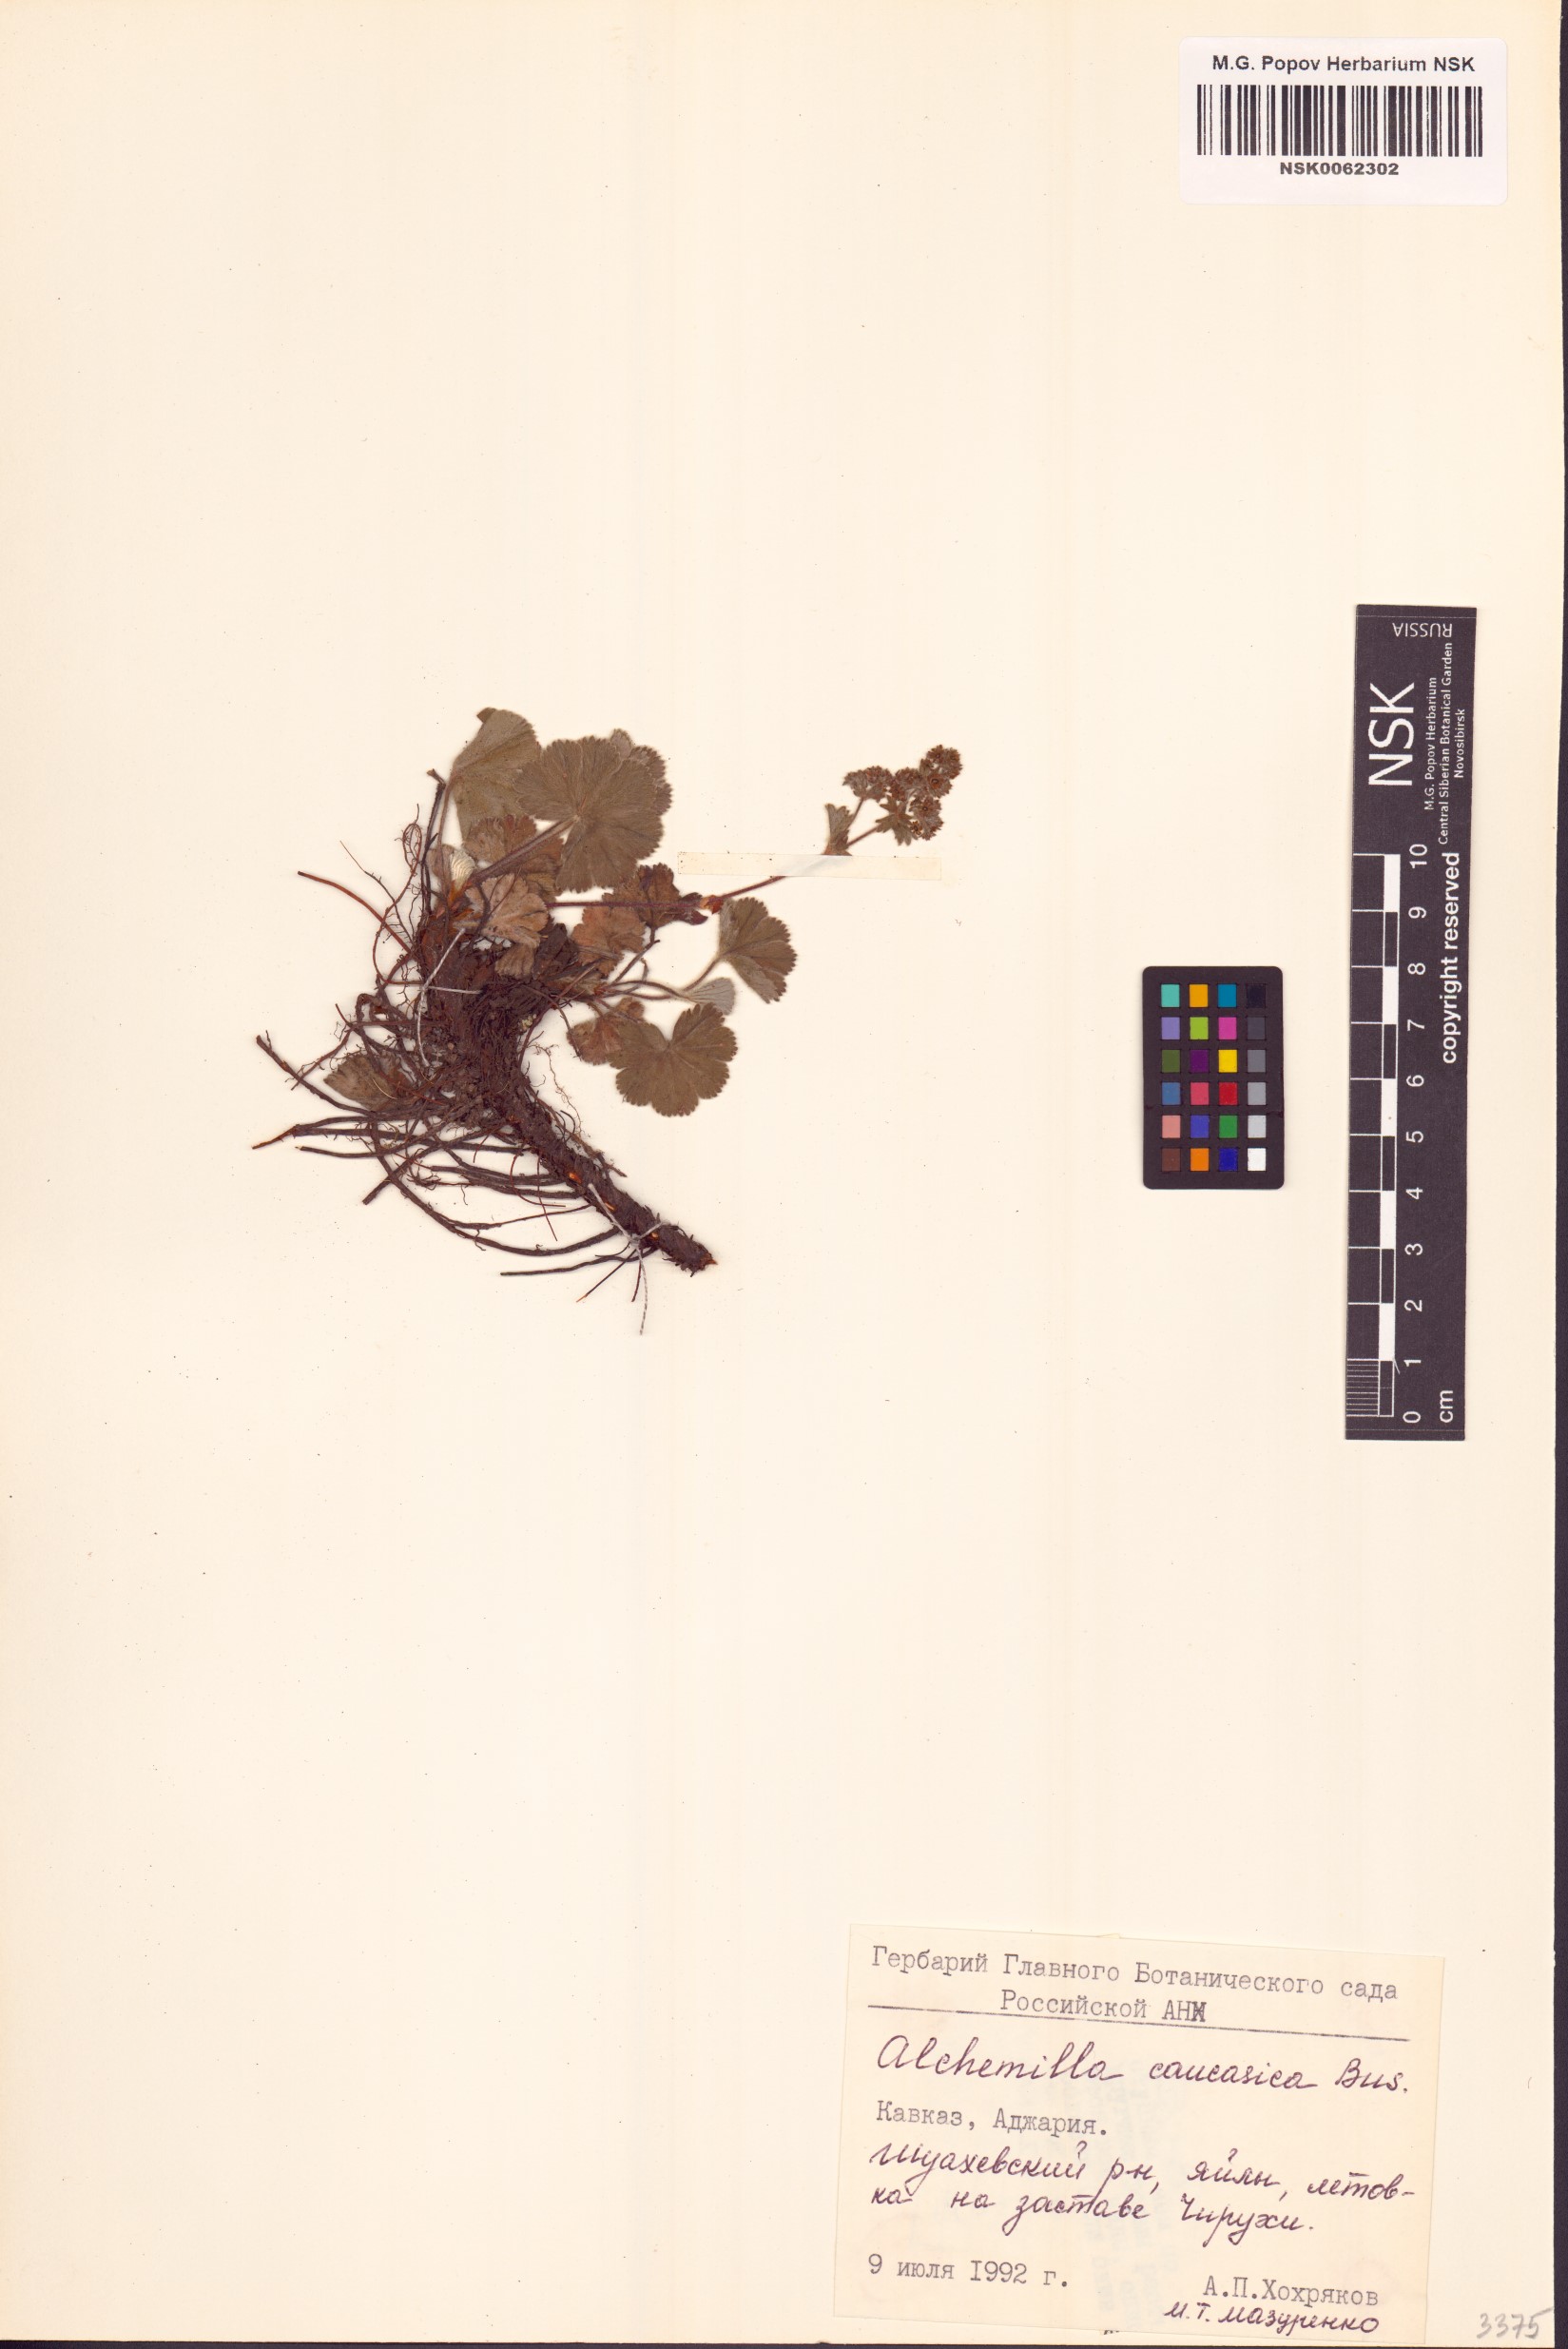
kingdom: Plantae
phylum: Tracheophyta
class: Magnoliopsida
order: Rosales
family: Rosaceae
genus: Alchemilla
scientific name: Alchemilla caucasica
